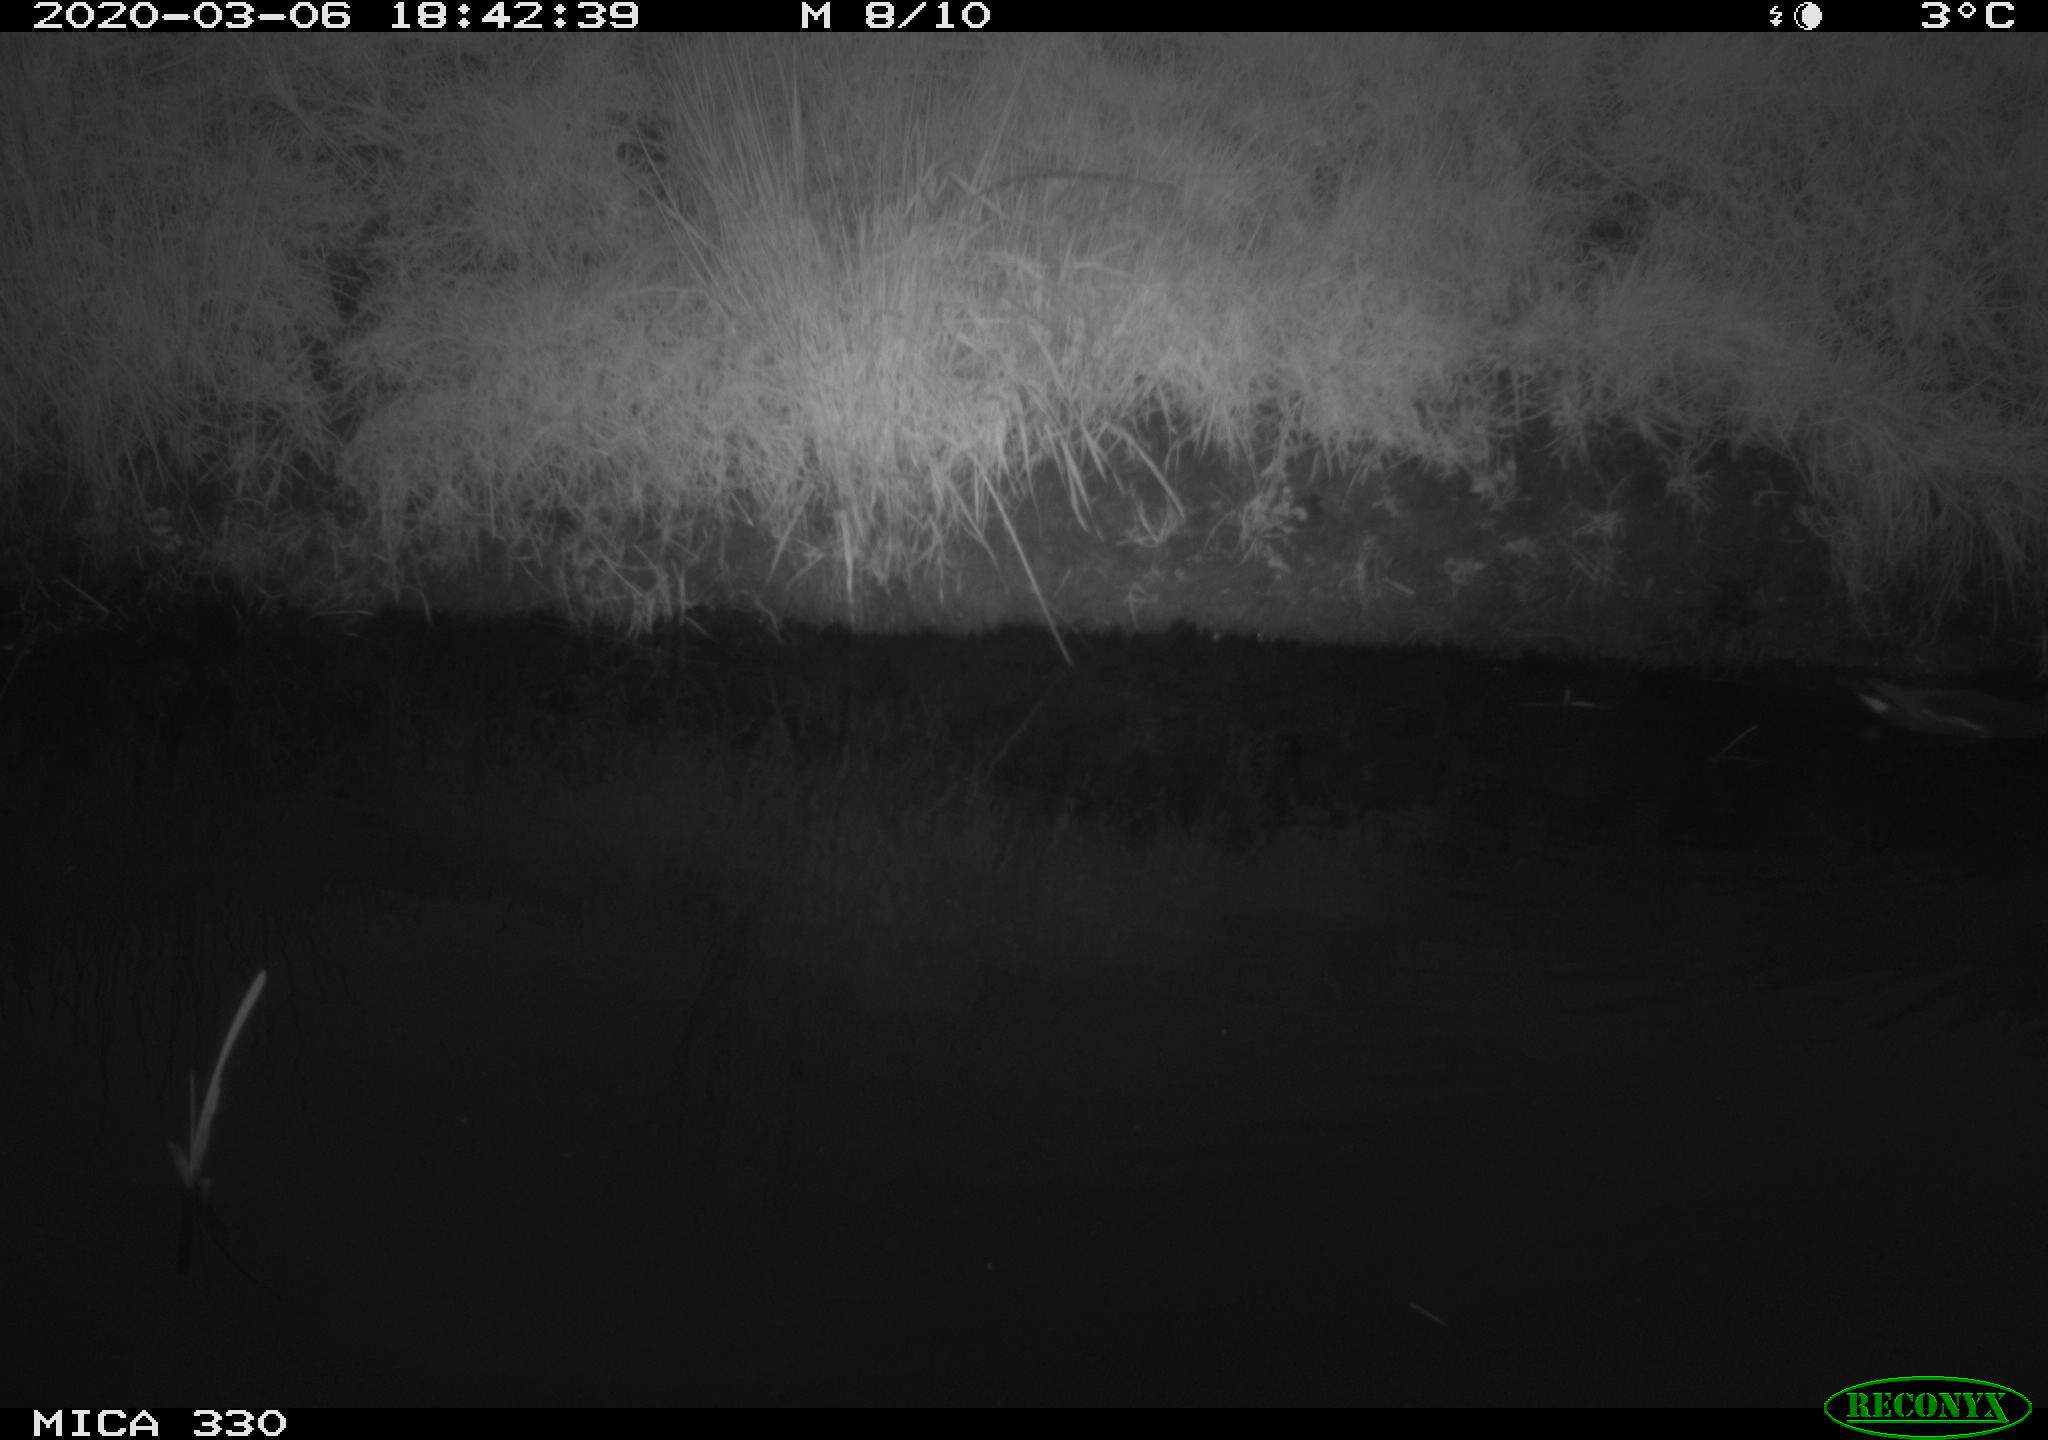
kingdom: Animalia
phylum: Chordata
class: Aves
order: Gruiformes
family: Rallidae
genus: Gallinula
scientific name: Gallinula chloropus
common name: Common moorhen
